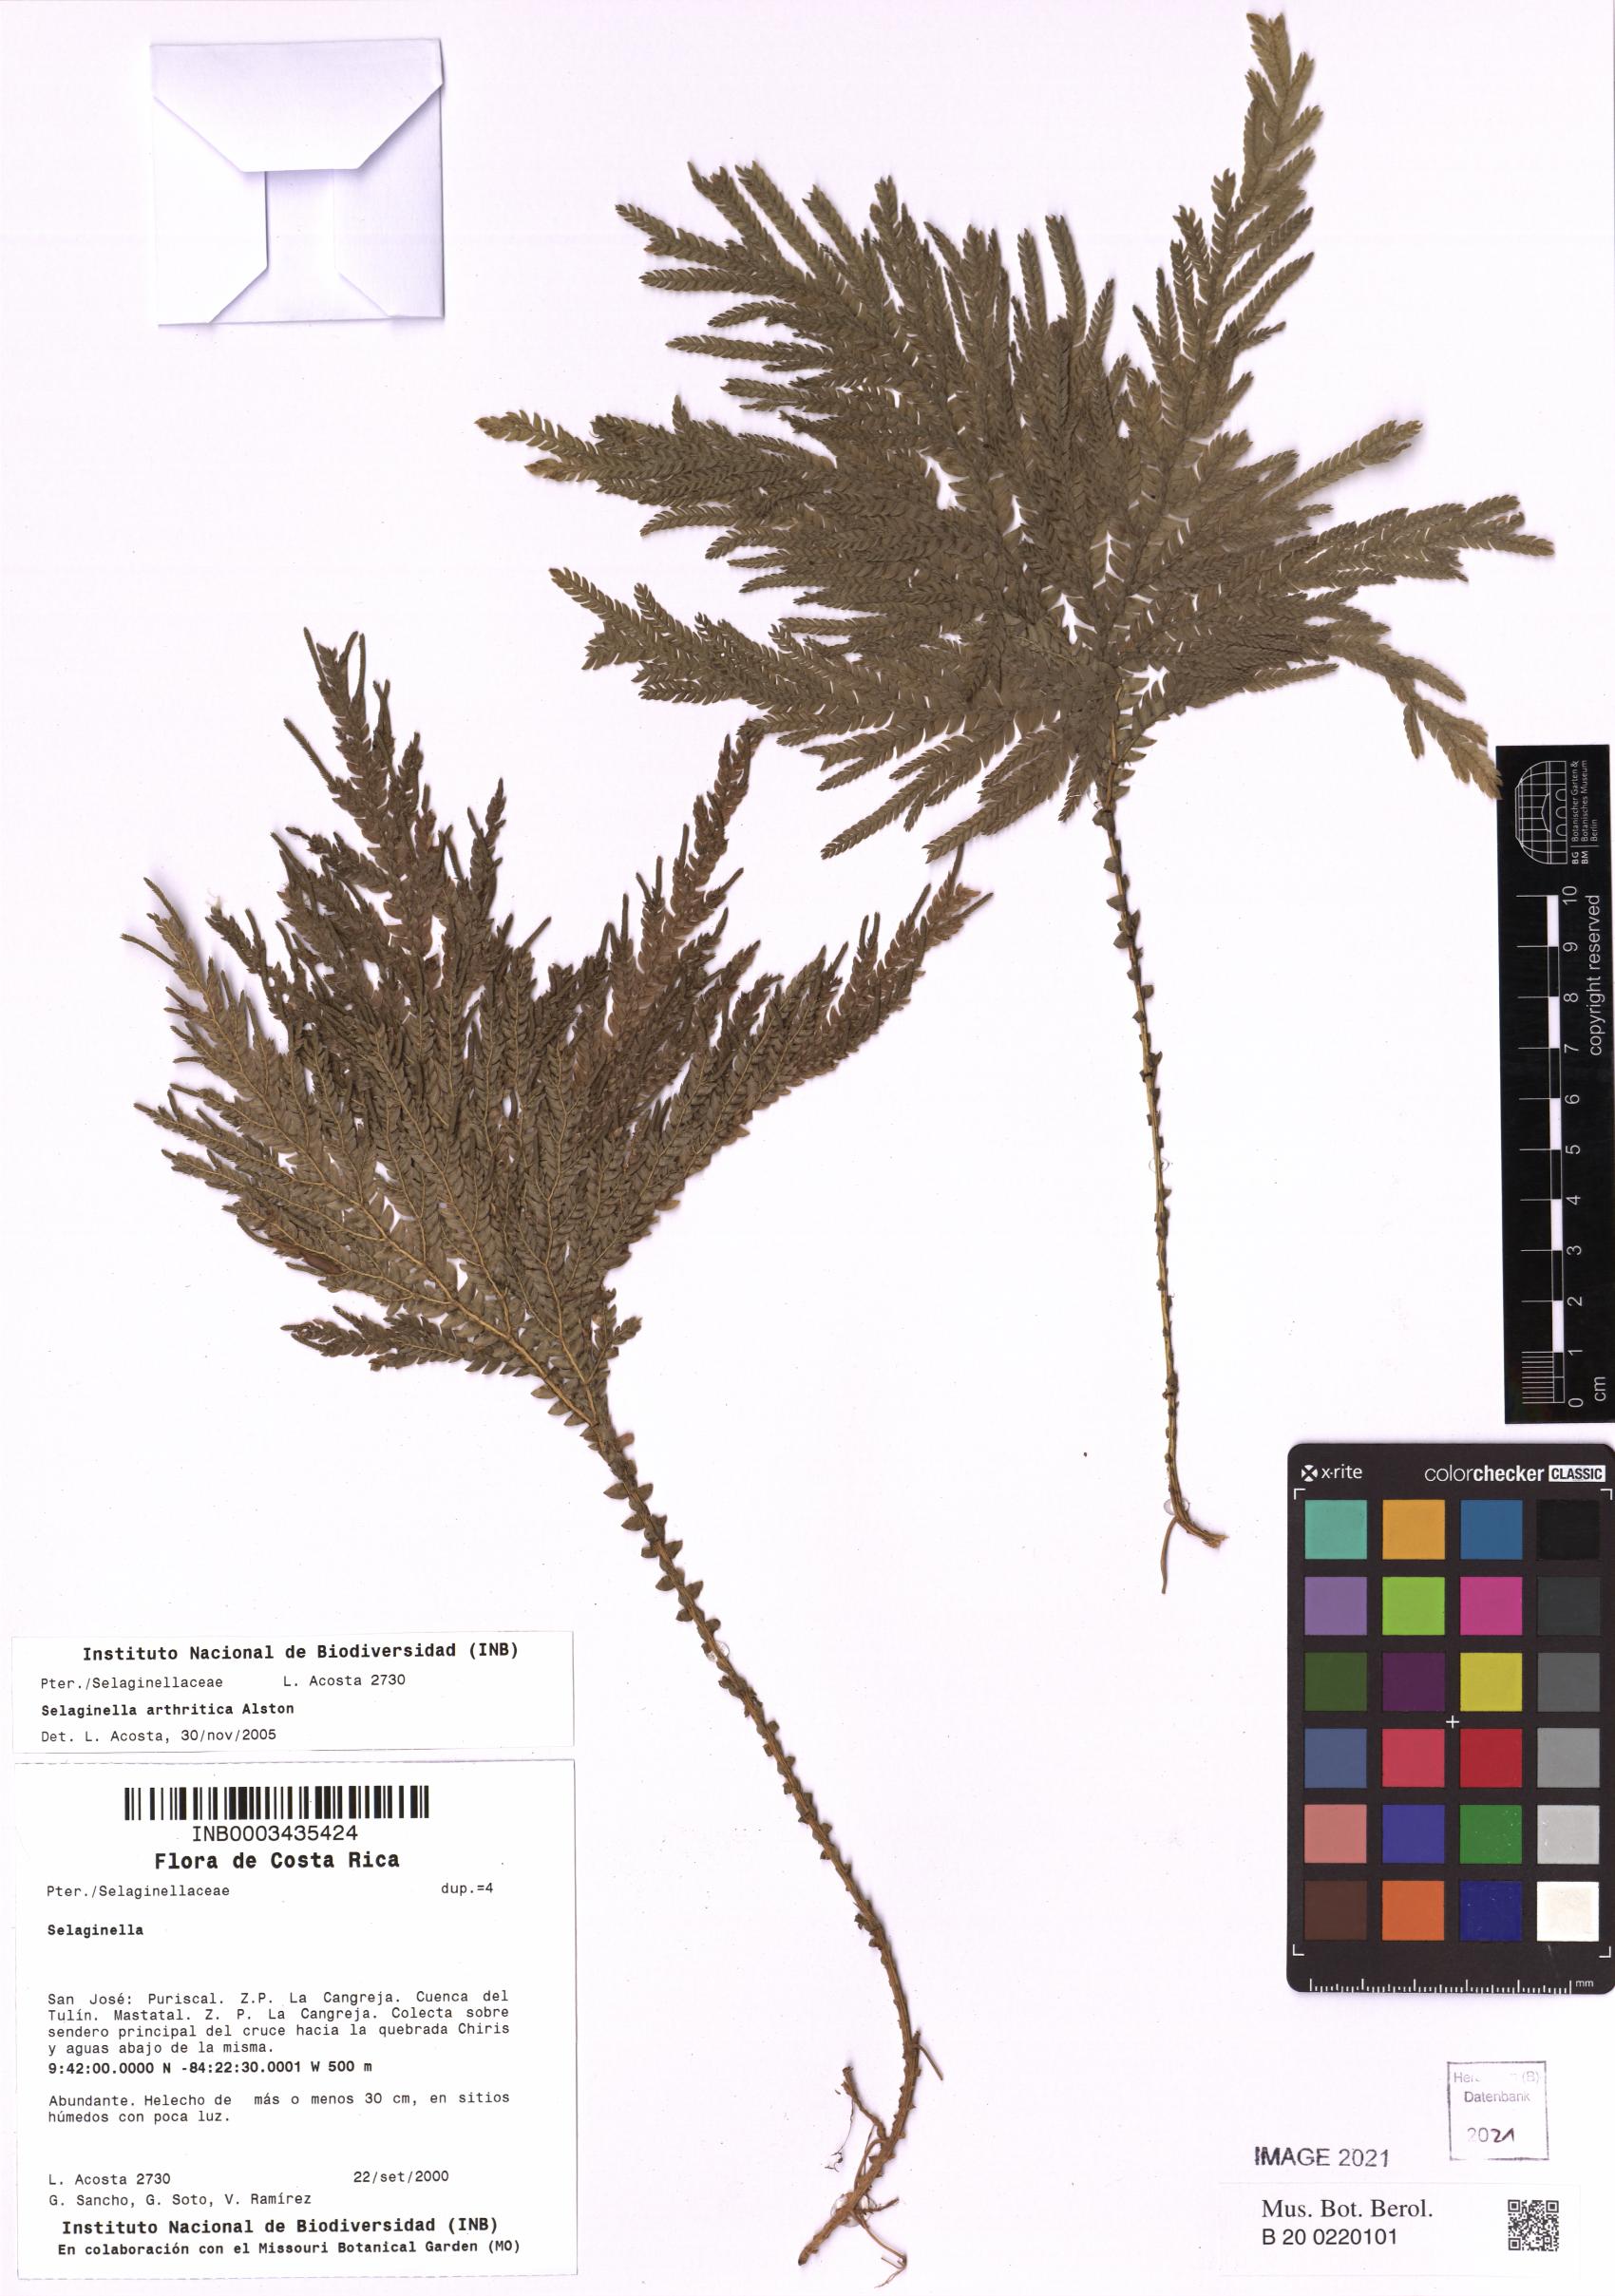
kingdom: Plantae
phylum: Tracheophyta
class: Lycopodiopsida
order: Selaginellales
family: Selaginellaceae
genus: Selaginella
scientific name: Selaginella arthritica
